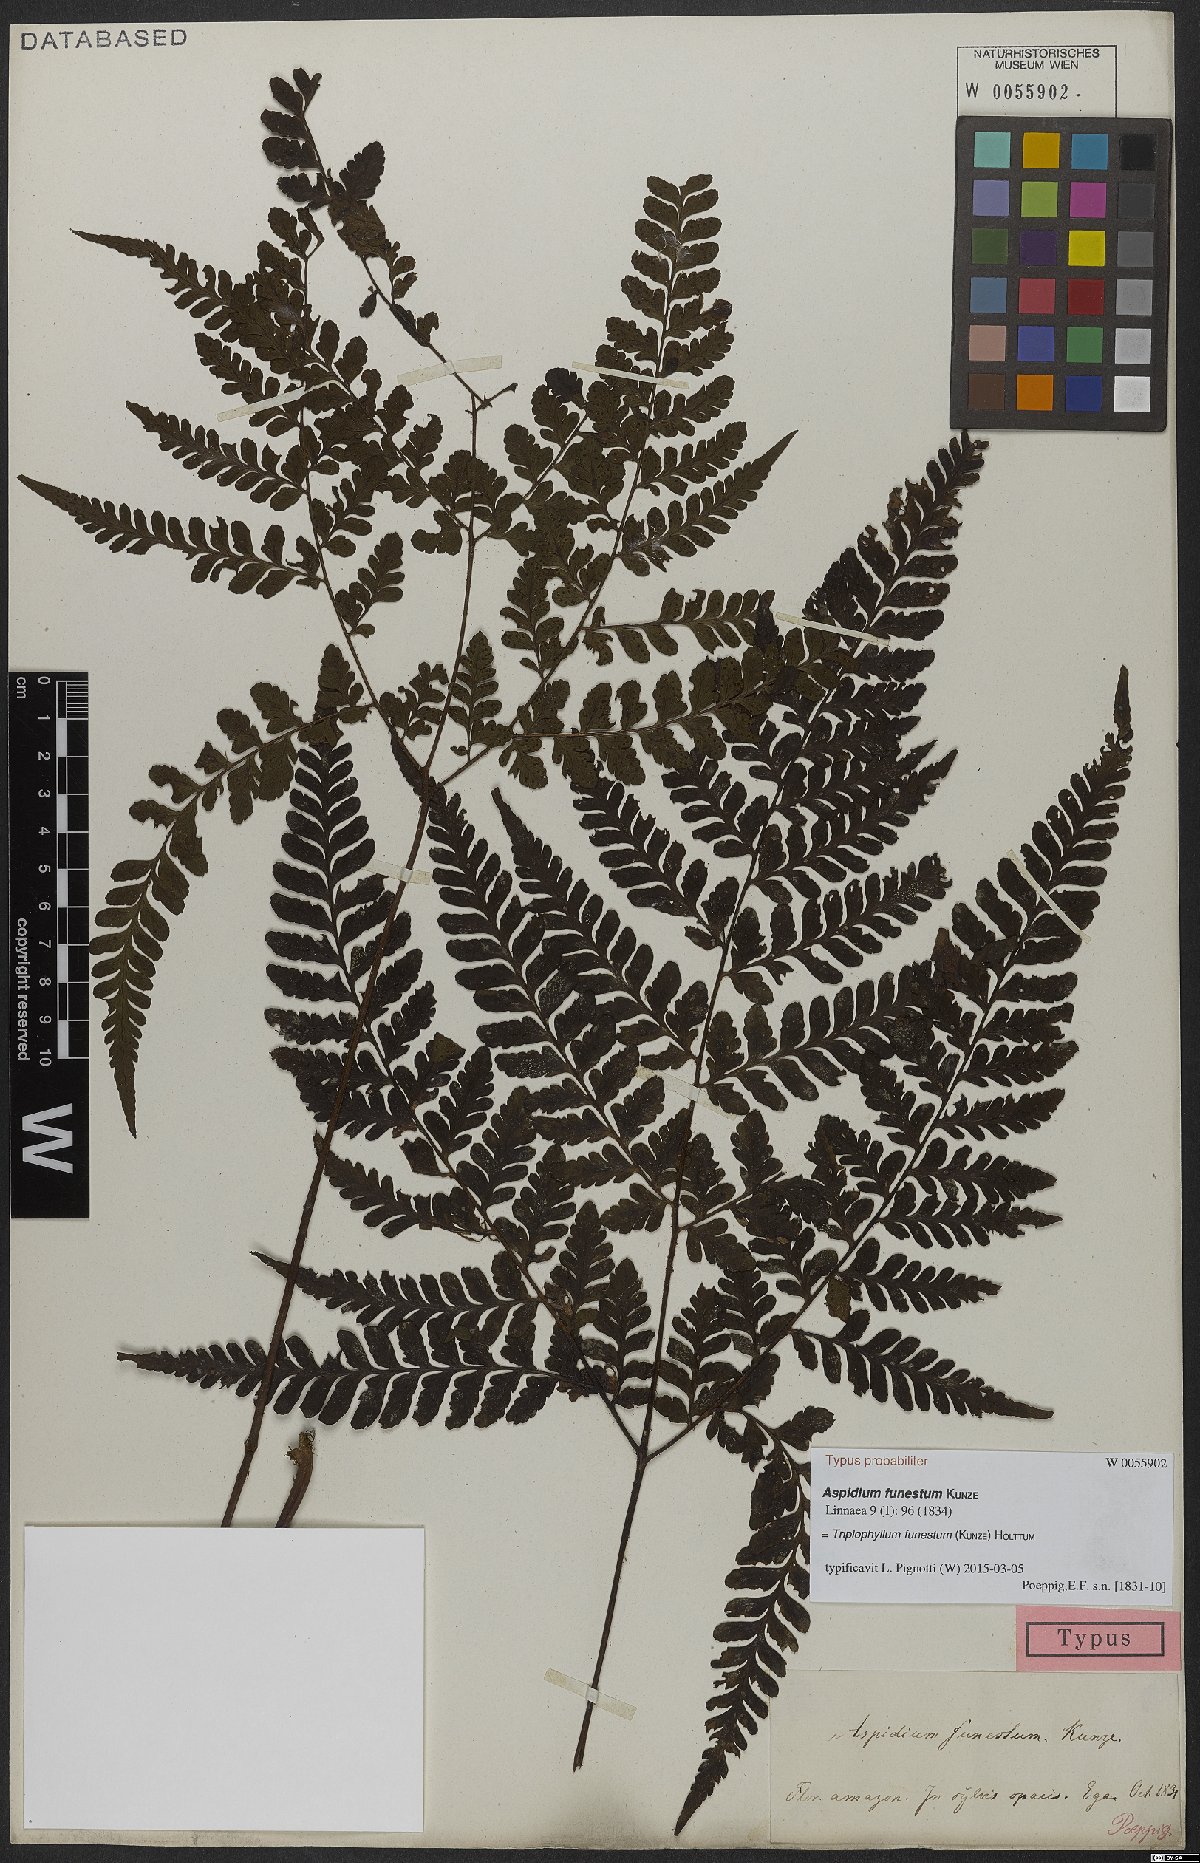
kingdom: Plantae
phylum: Tracheophyta
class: Polypodiopsida
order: Polypodiales
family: Tectariaceae
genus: Triplophyllum
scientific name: Triplophyllum funestum
